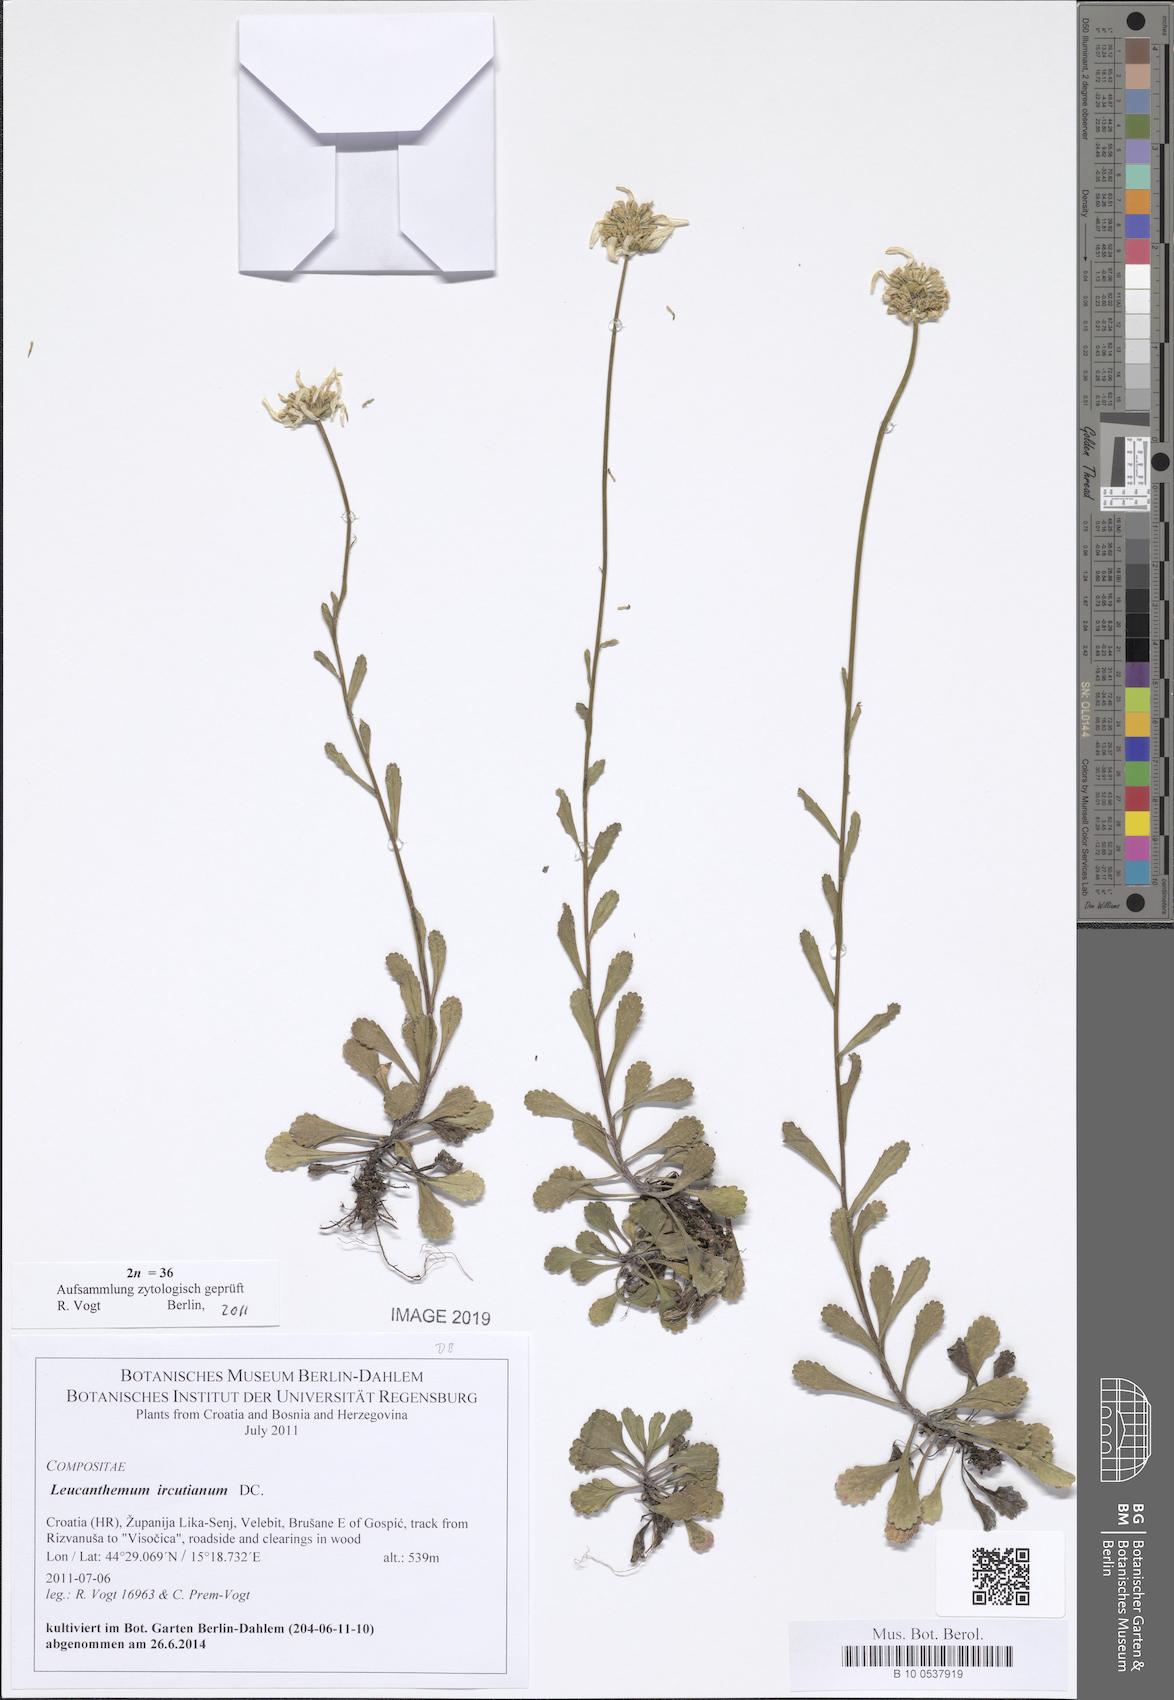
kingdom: Plantae
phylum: Tracheophyta
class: Magnoliopsida
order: Asterales
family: Asteraceae
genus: Leucanthemum
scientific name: Leucanthemum ircutianum
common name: Daisy
